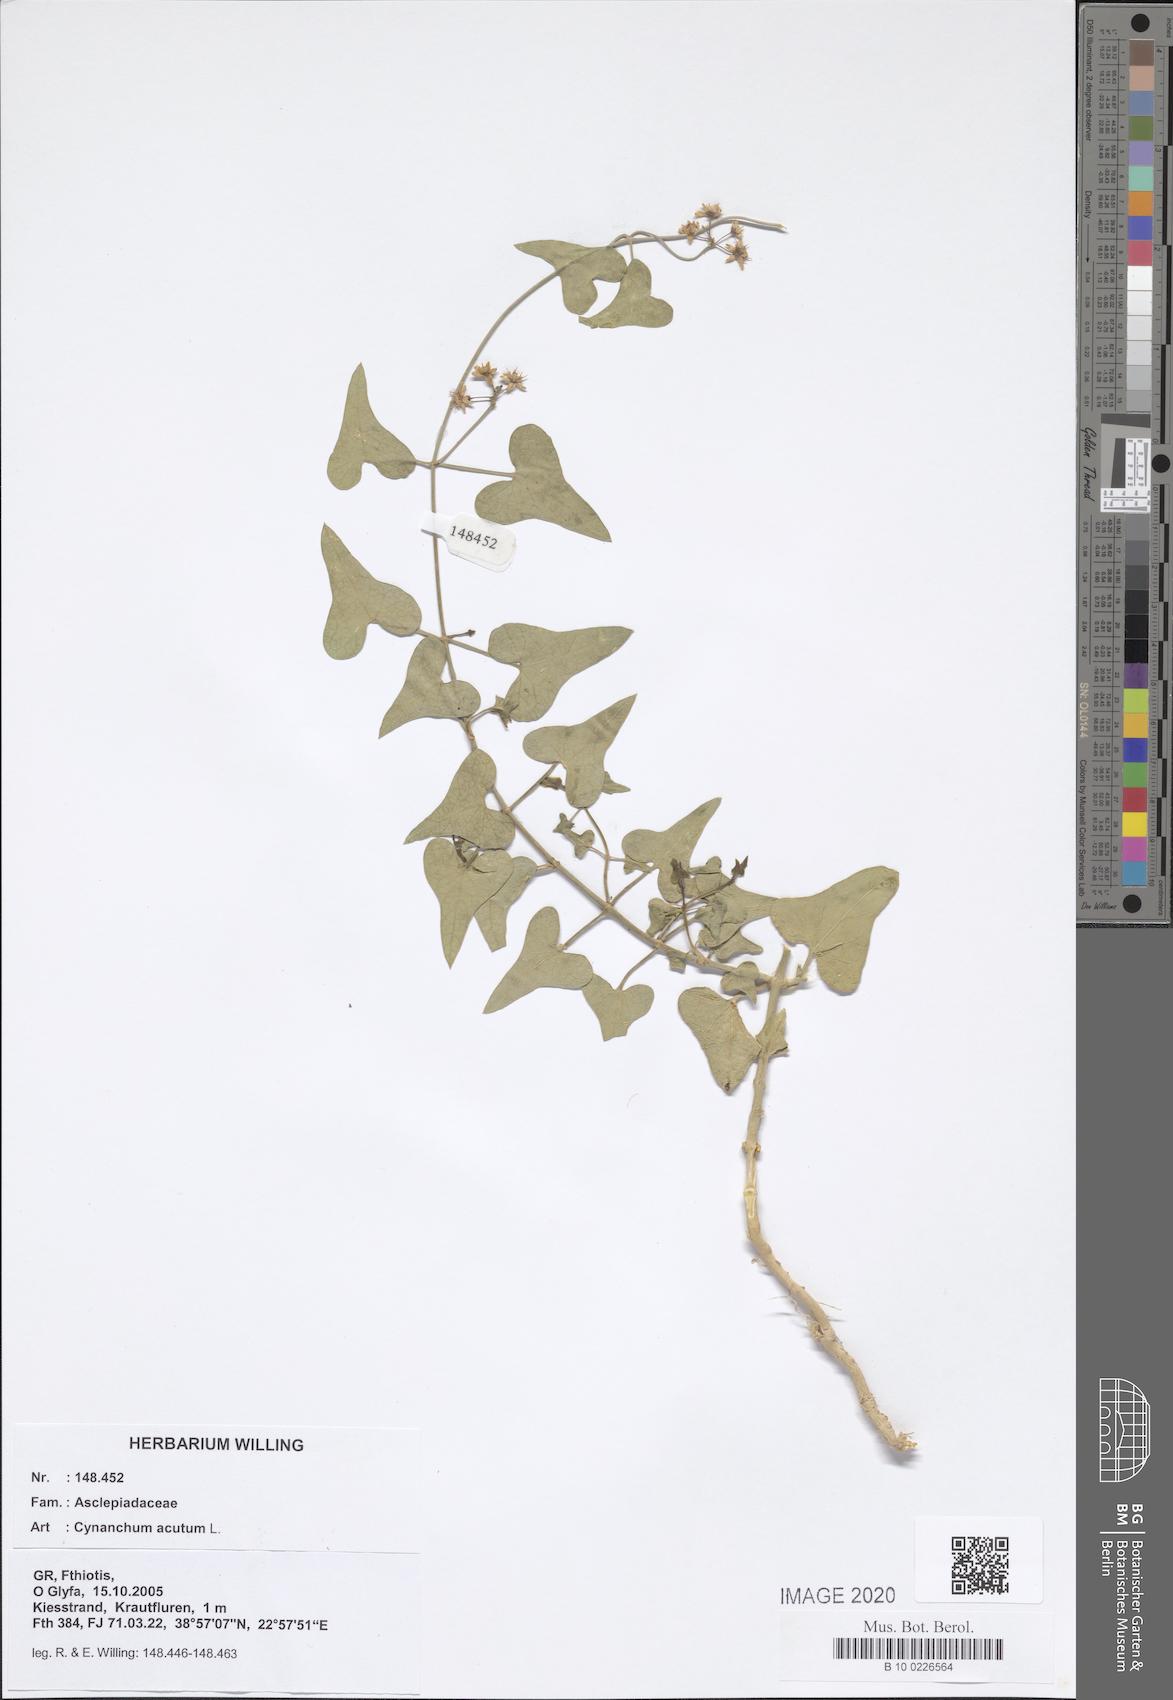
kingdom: Plantae
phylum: Tracheophyta
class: Magnoliopsida
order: Gentianales
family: Apocynaceae
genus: Cynanchum
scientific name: Cynanchum acutum
